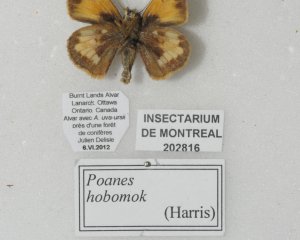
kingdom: Animalia
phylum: Arthropoda
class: Insecta
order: Lepidoptera
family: Hesperiidae
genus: Lon
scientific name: Lon hobomok
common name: Hobomok Skipper
